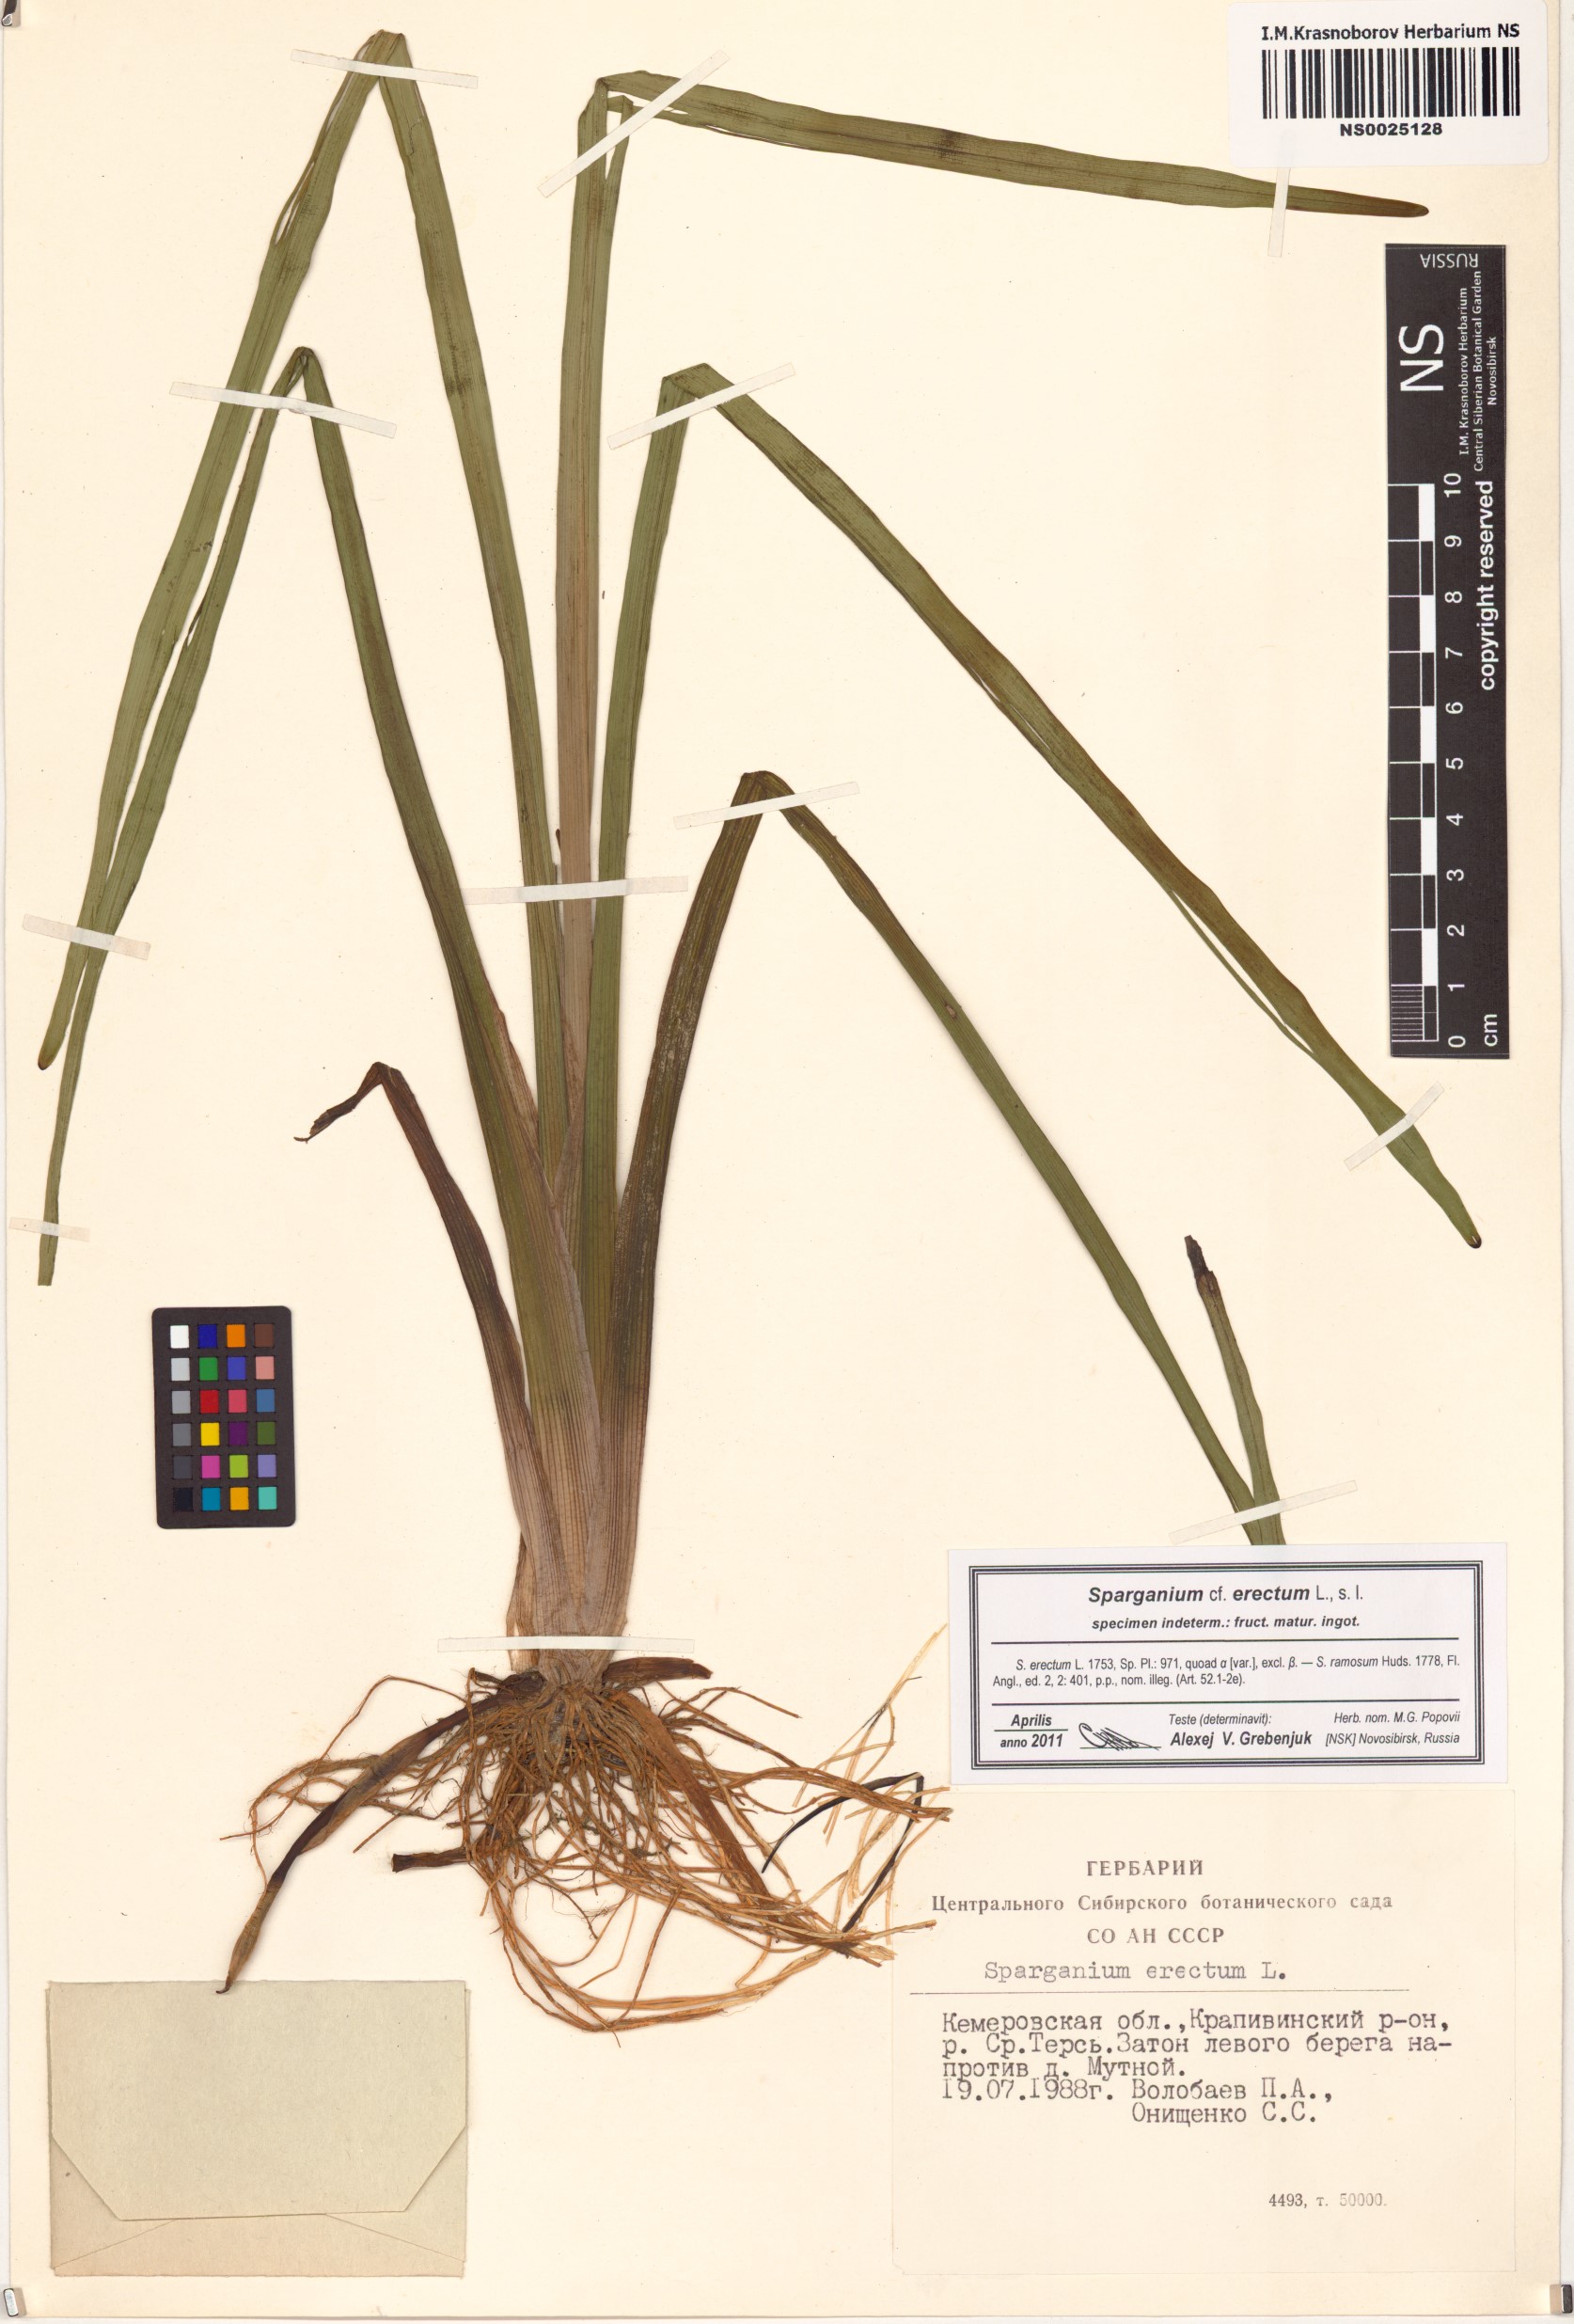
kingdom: Plantae
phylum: Tracheophyta
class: Liliopsida
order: Poales
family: Typhaceae
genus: Sparganium
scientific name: Sparganium erectum
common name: Branched bur-reed
